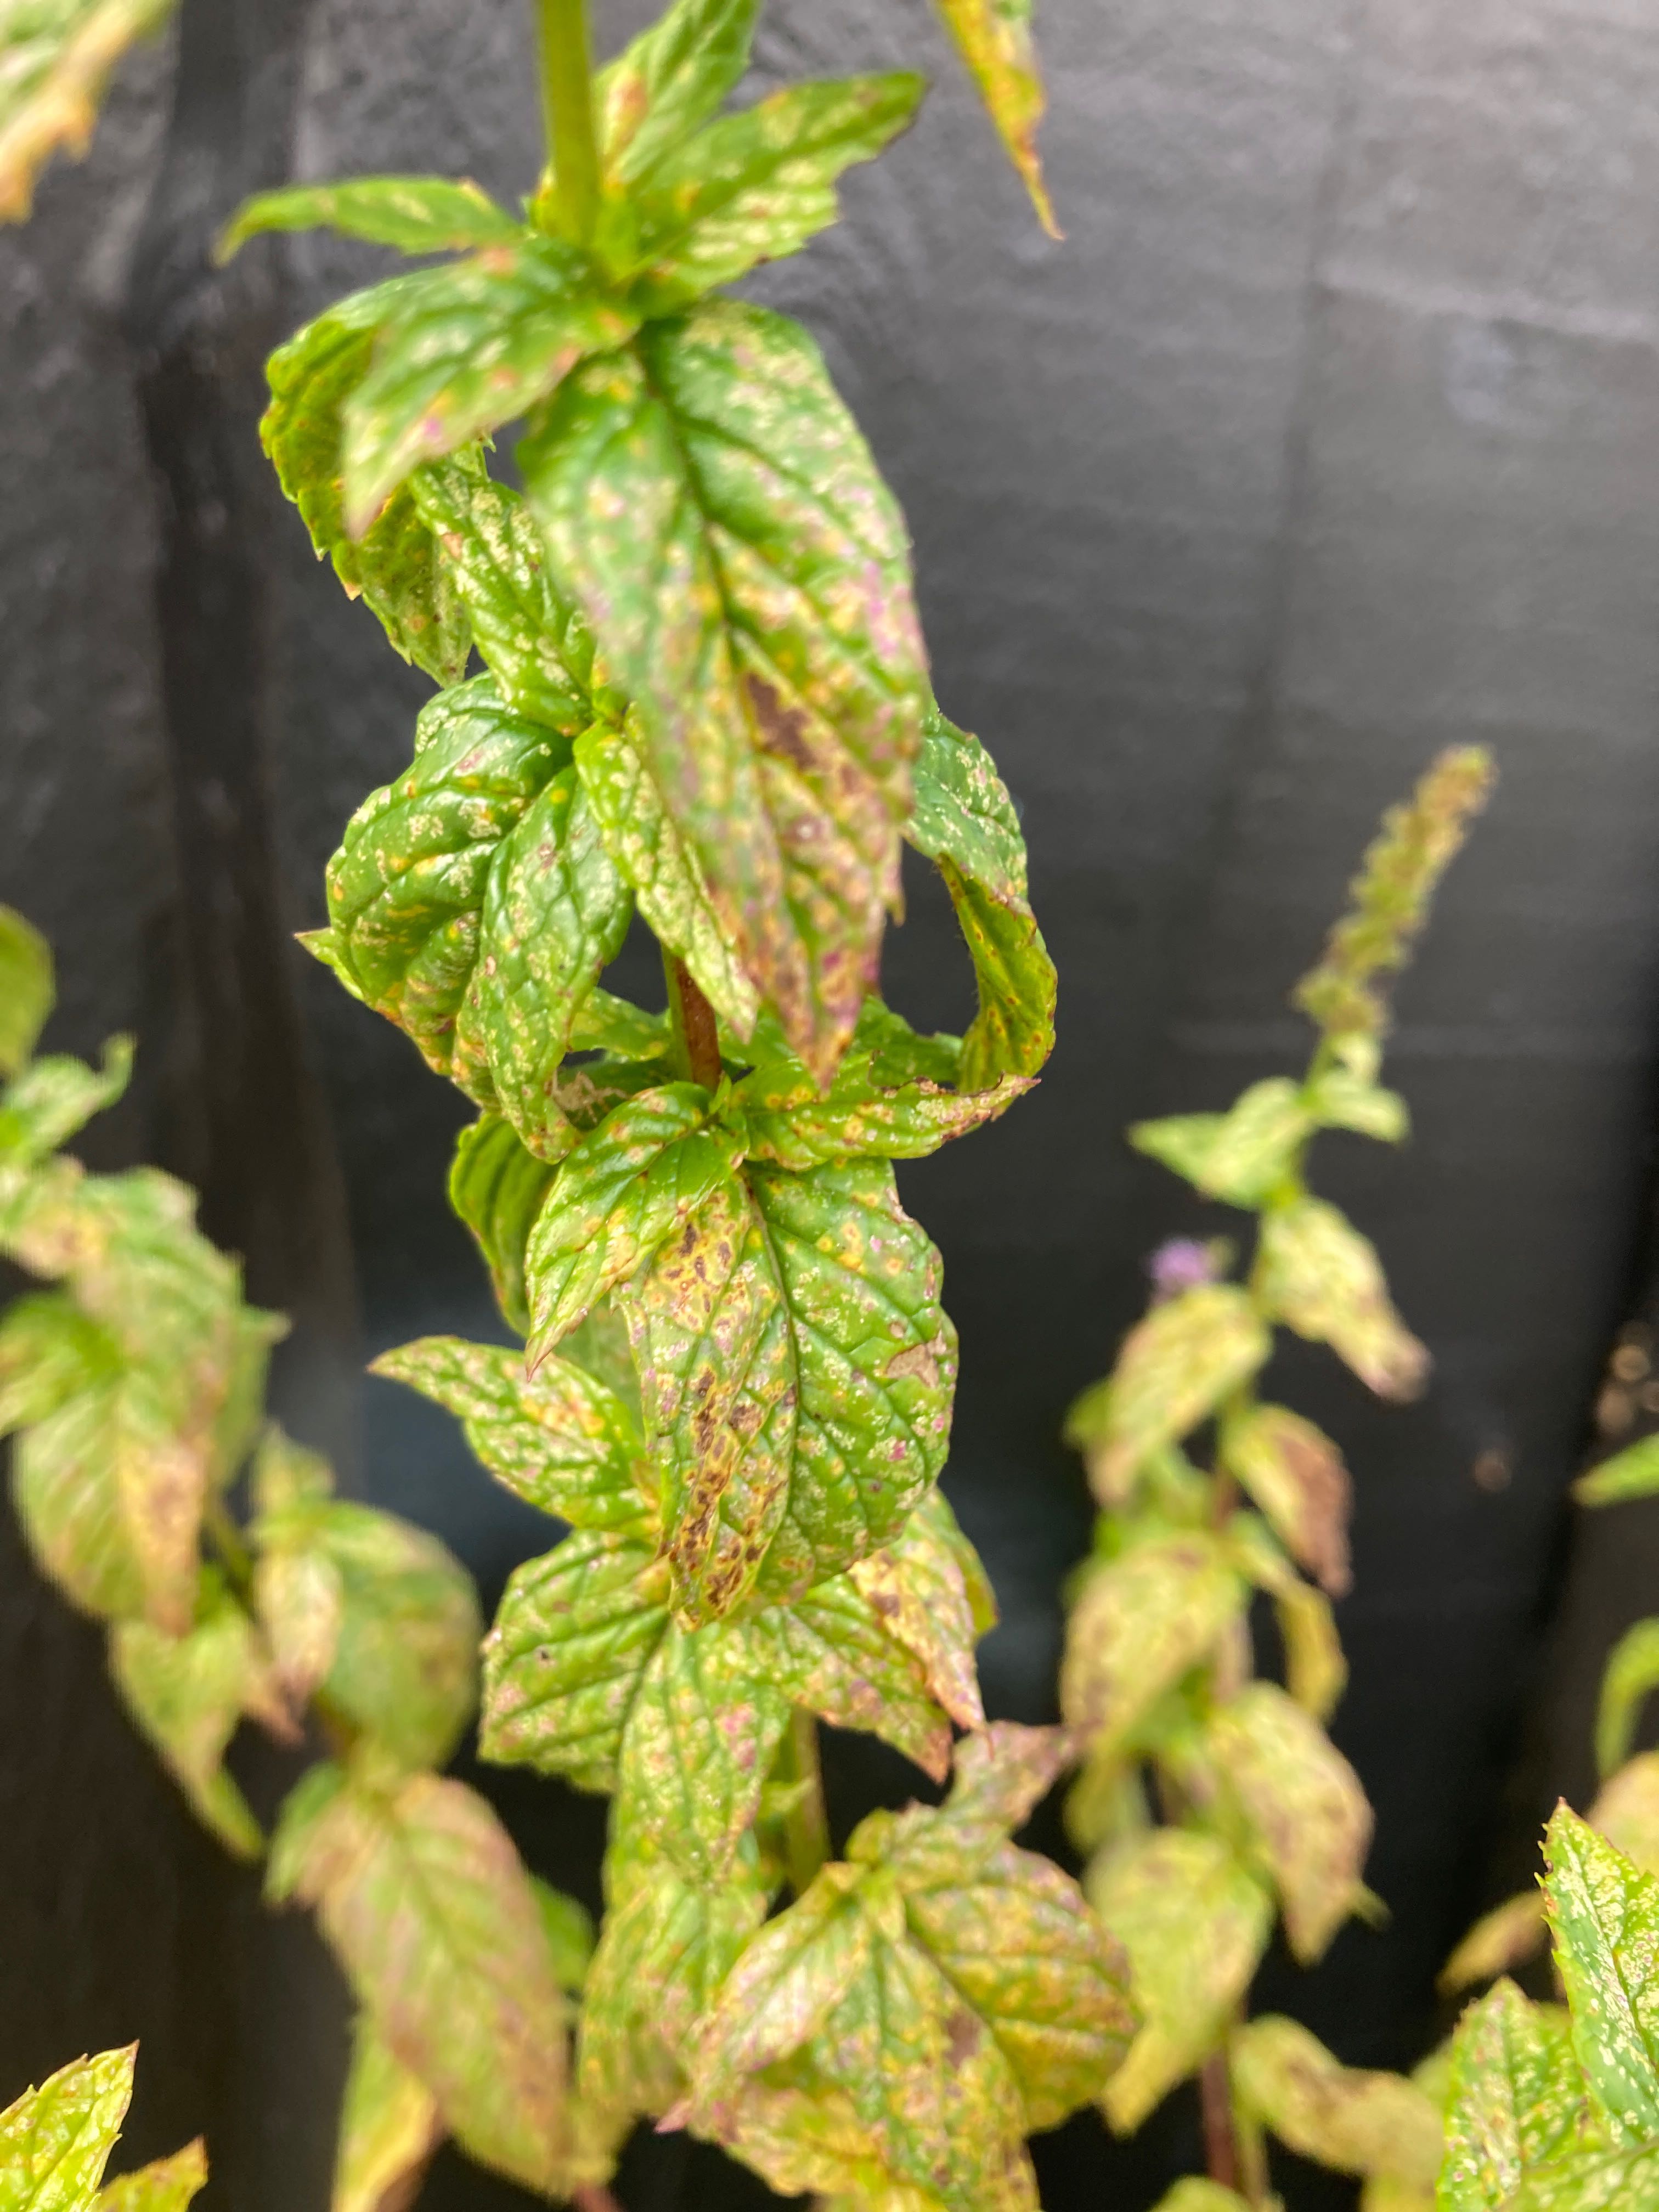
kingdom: Fungi
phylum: Basidiomycota
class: Pucciniomycetes
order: Pucciniales
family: Pucciniaceae
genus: Puccinia
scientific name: Puccinia menthae
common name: Mint rust
